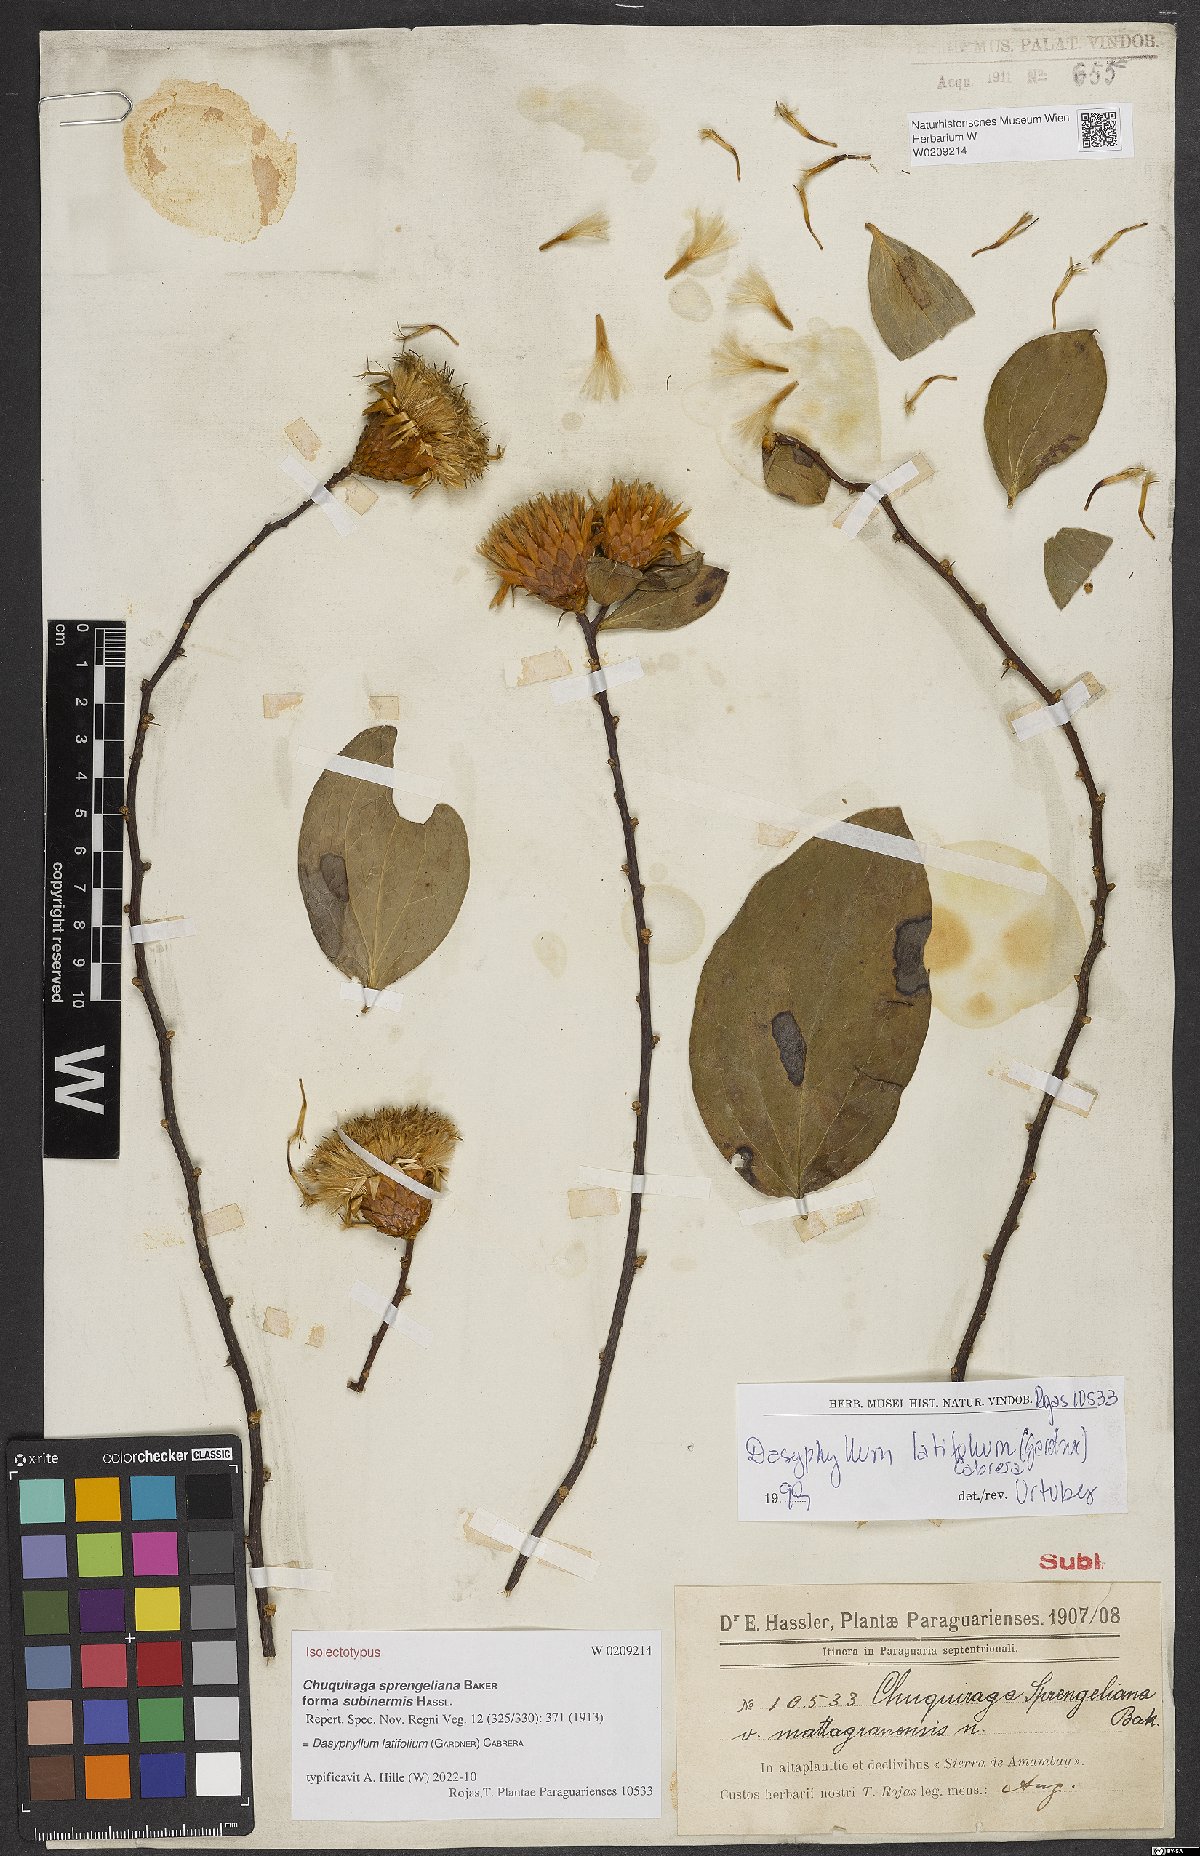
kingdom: Plantae
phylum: Tracheophyta
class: Magnoliopsida
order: Asterales
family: Asteraceae
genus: Dasyphyllum
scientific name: Dasyphyllum latifolium
